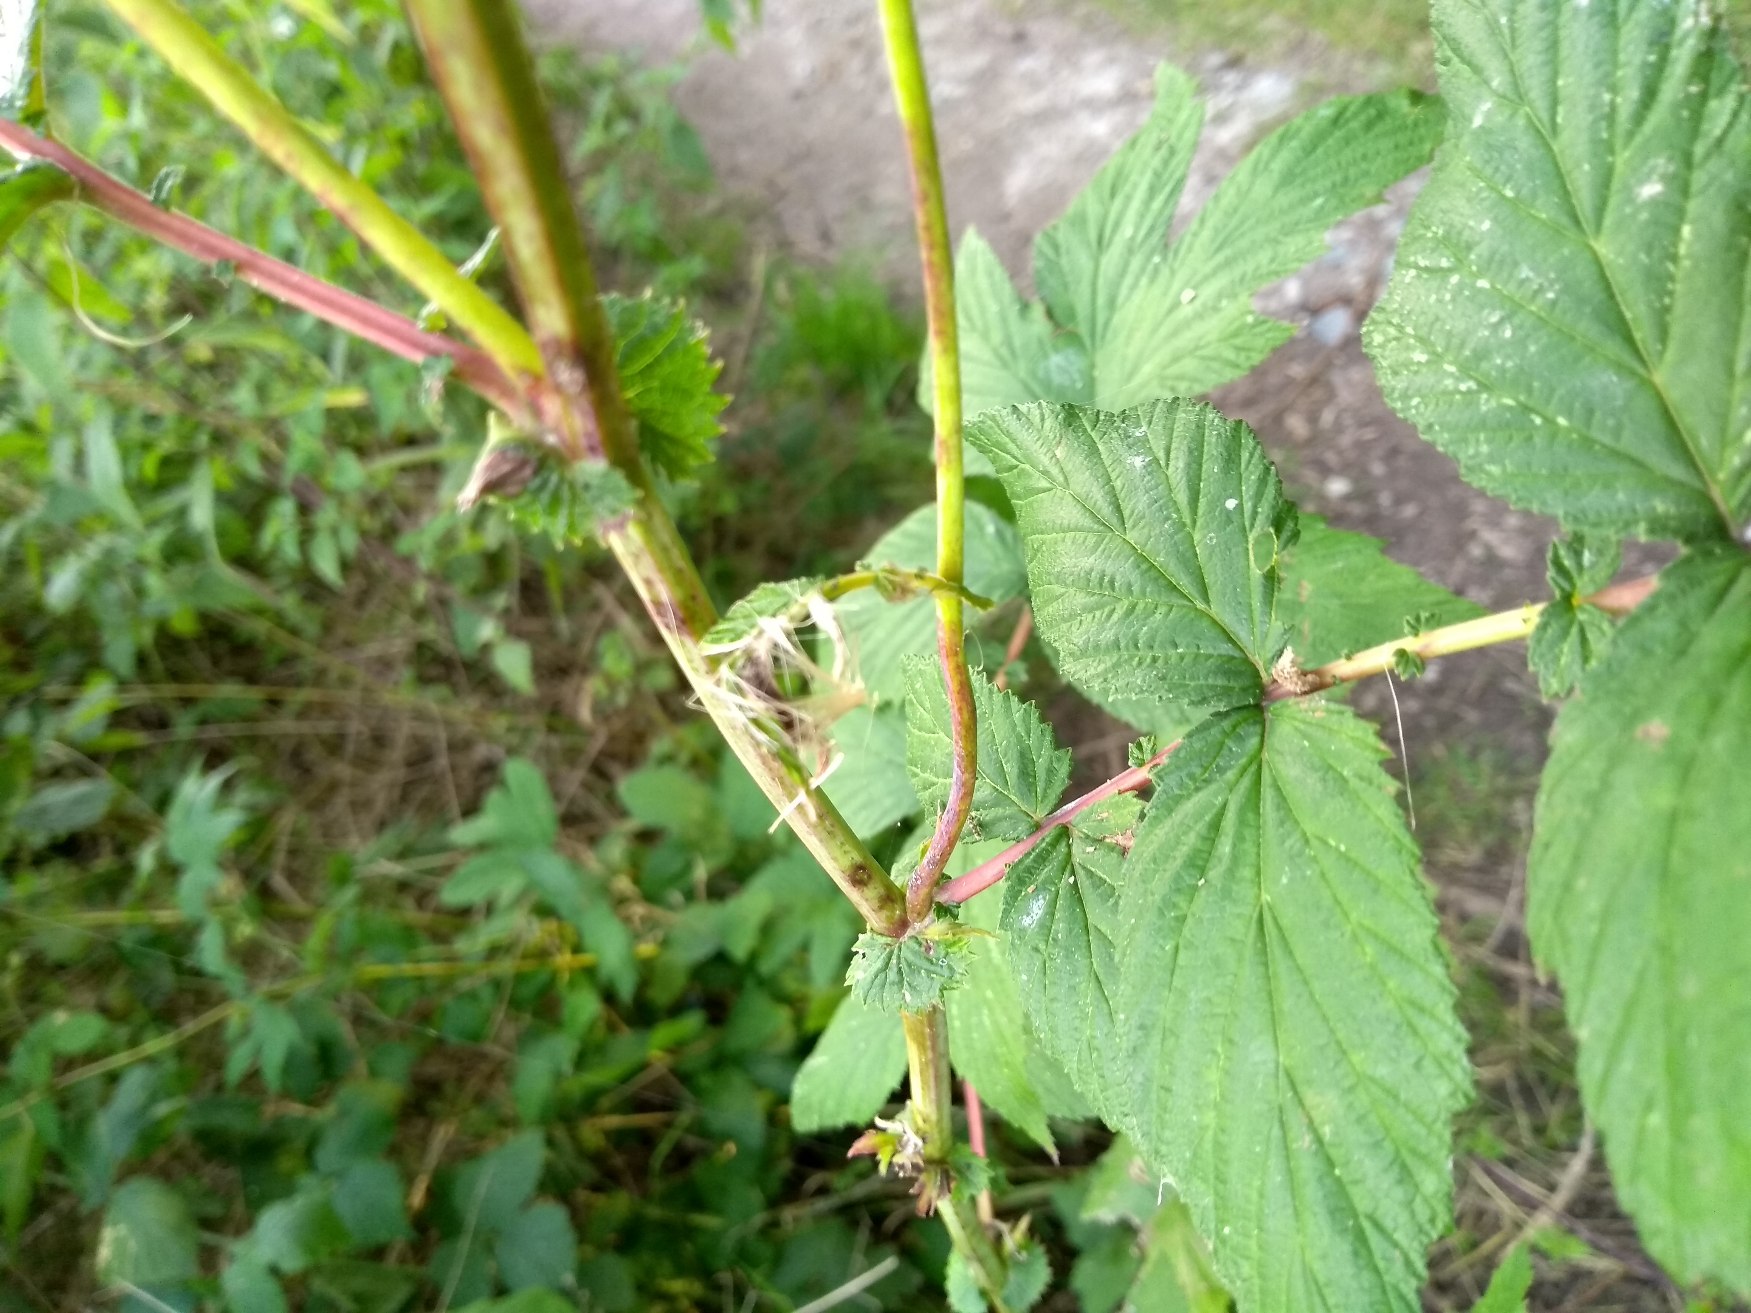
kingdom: Plantae
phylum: Tracheophyta
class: Magnoliopsida
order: Rosales
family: Rosaceae
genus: Filipendula
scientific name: Filipendula ulmaria
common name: Almindelig mjødurt
